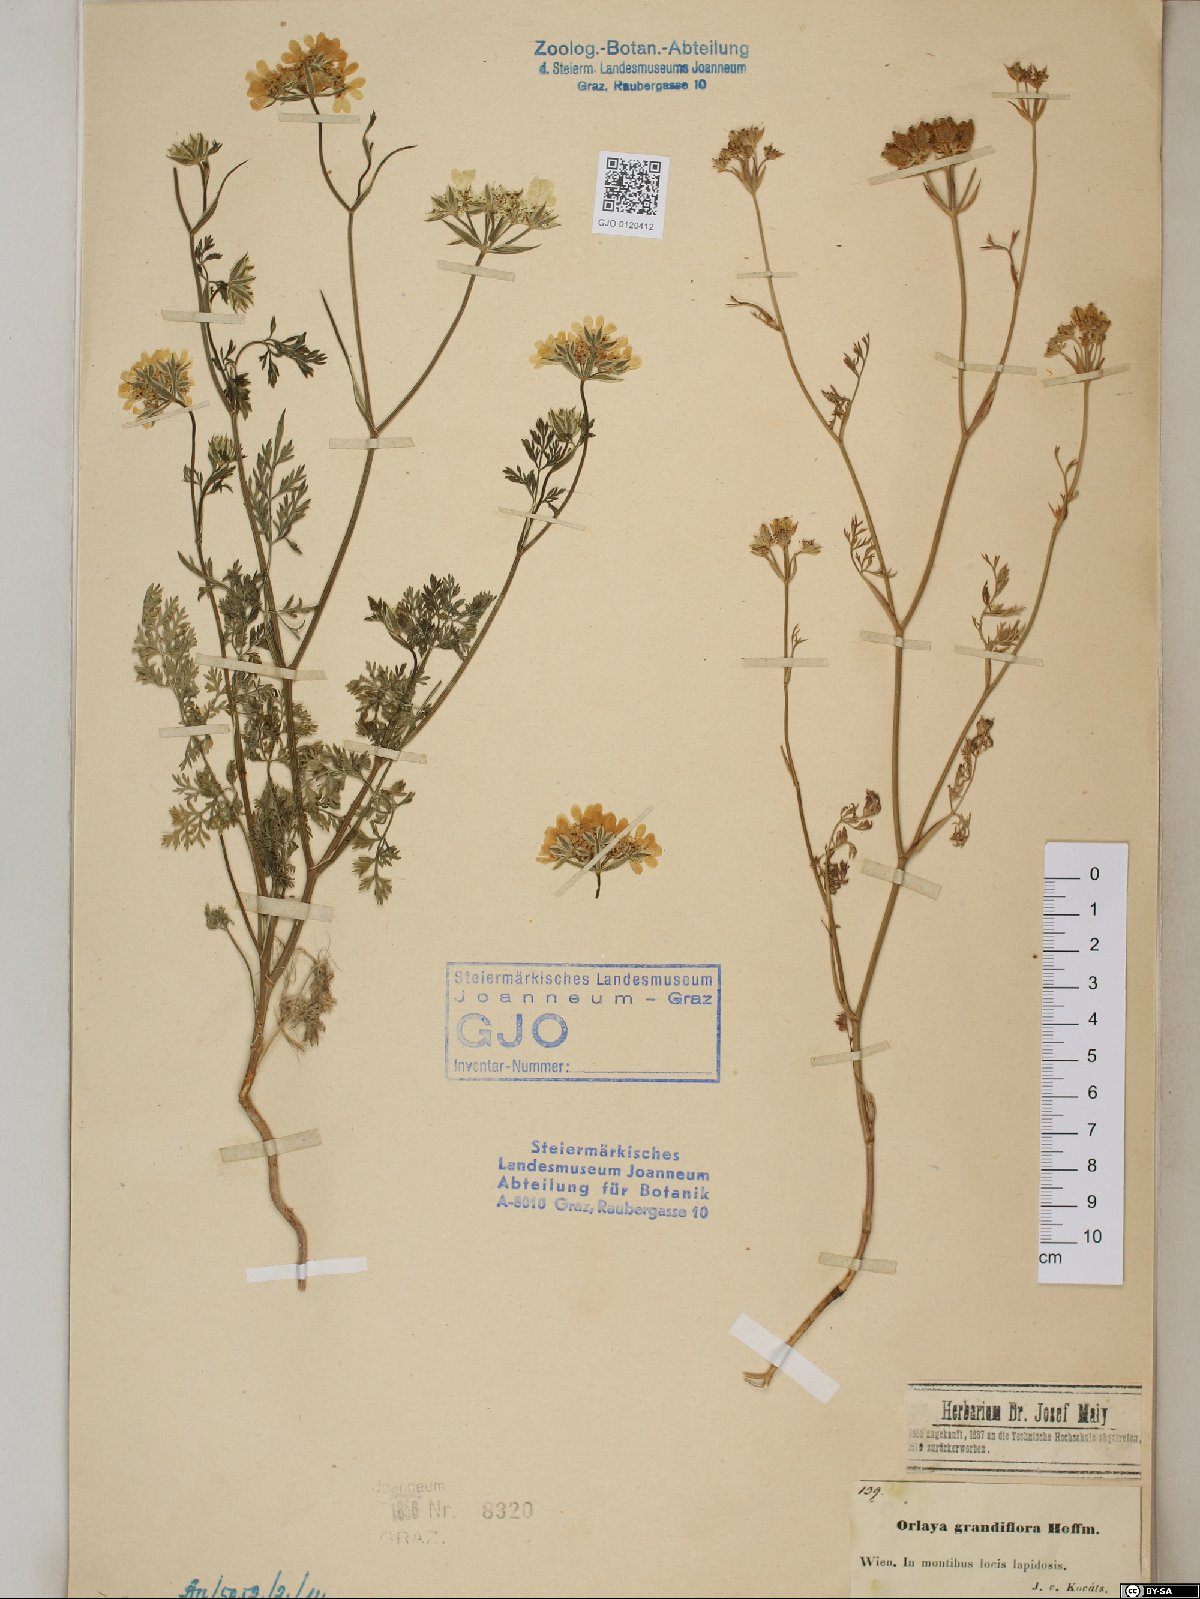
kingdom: Plantae
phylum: Tracheophyta
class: Magnoliopsida
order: Apiales
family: Apiaceae
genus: Orlaya
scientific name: Orlaya grandiflora
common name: White lace flower
